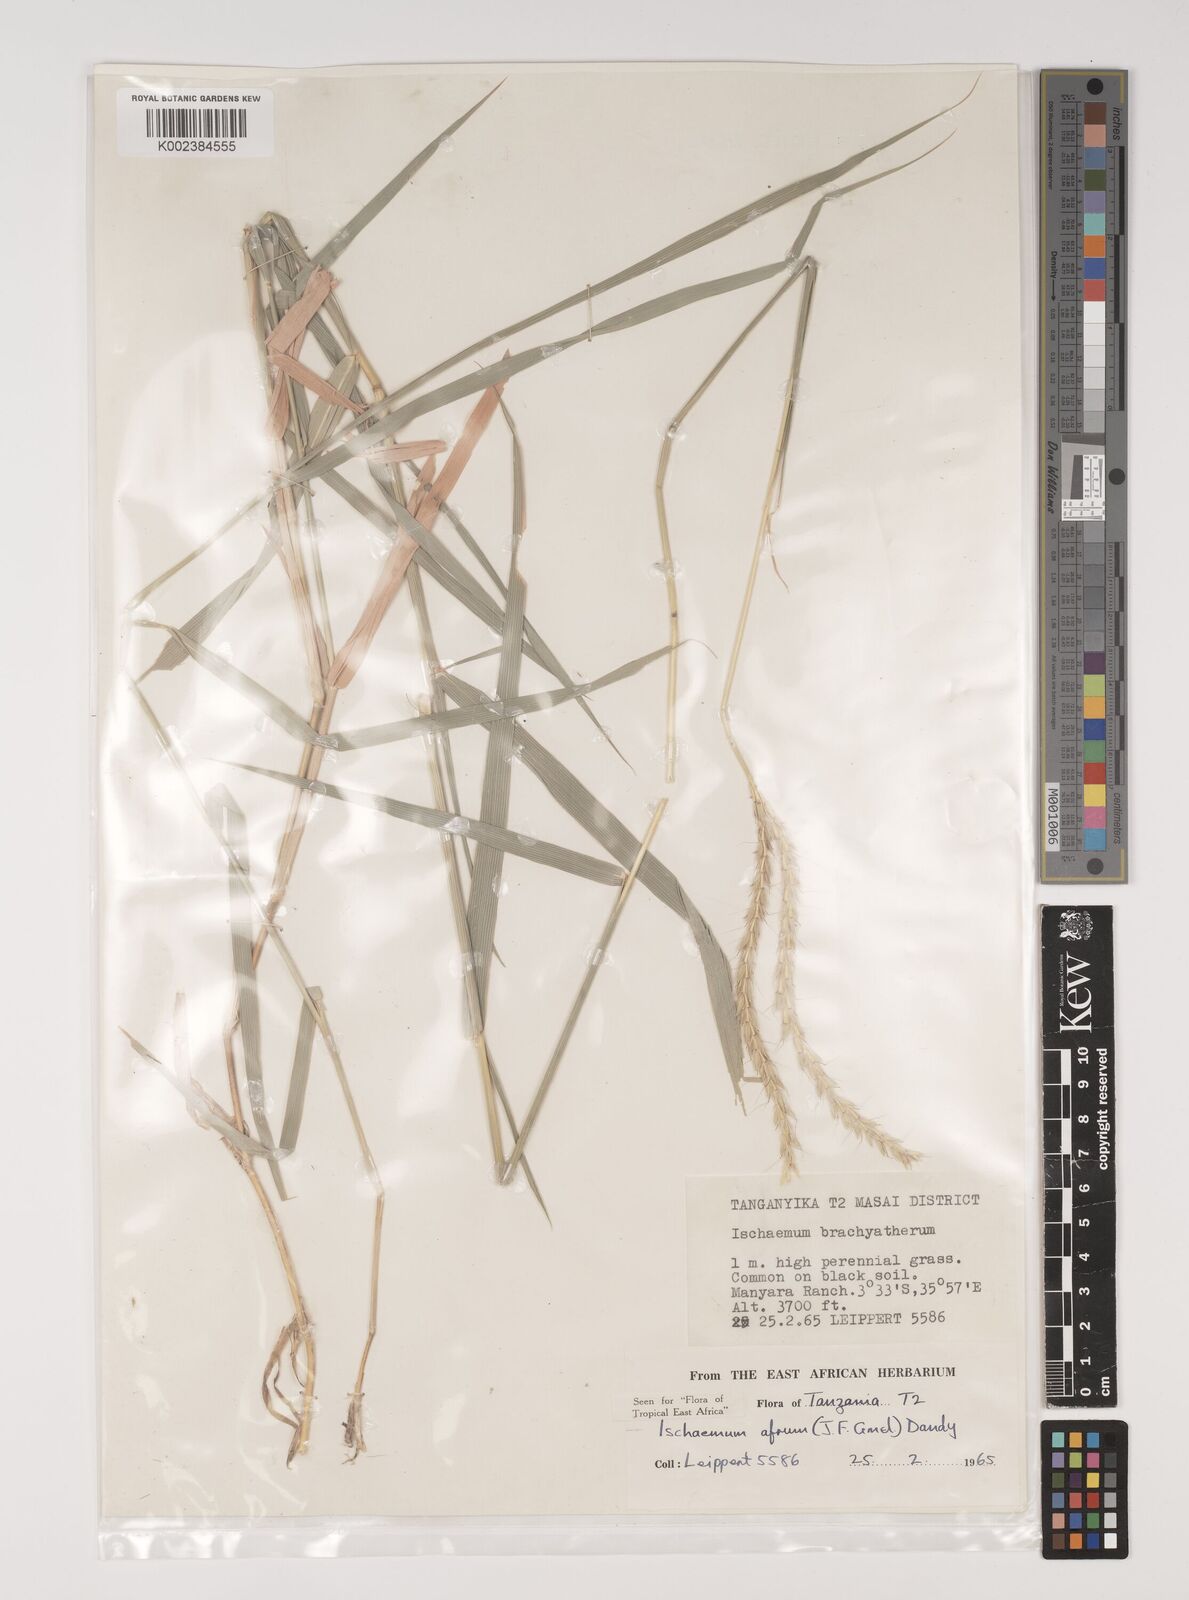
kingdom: Plantae
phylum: Tracheophyta
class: Liliopsida
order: Poales
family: Poaceae
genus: Ischaemum
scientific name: Ischaemum afrum
